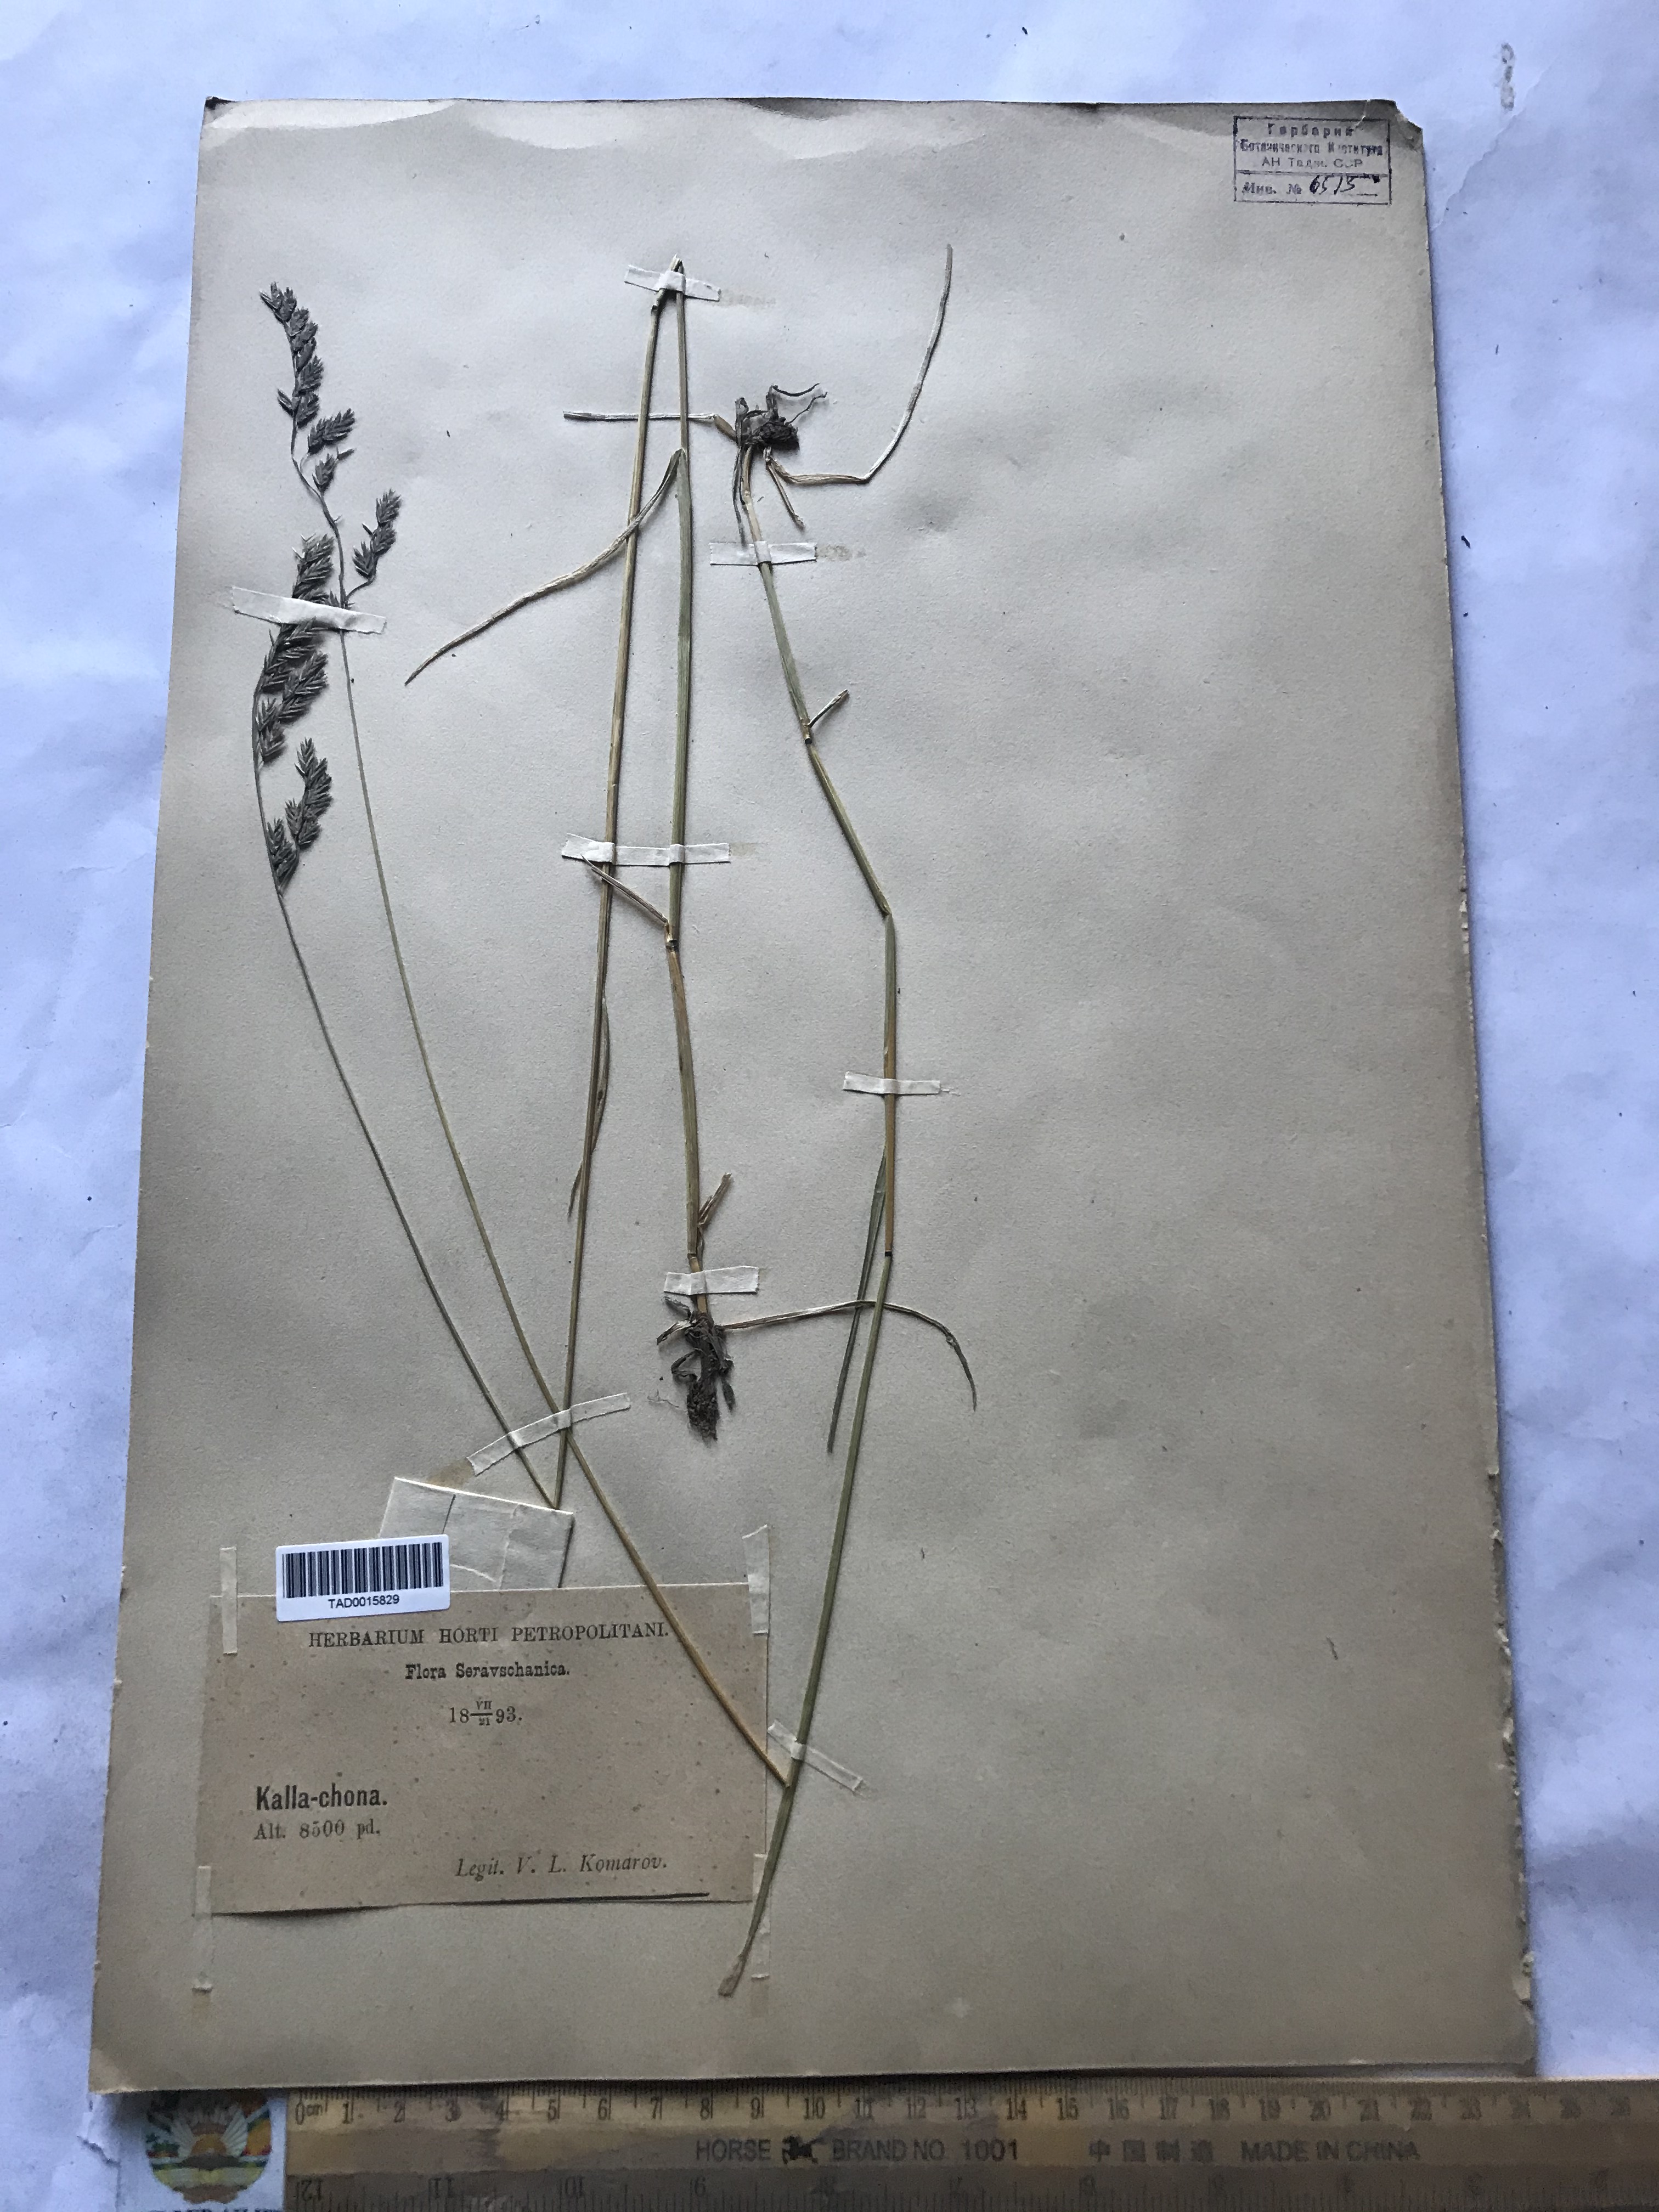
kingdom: Plantae
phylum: Tracheophyta
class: Liliopsida
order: Poales
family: Poaceae
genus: Festuca
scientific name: Festuca rubra
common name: Red fescue
